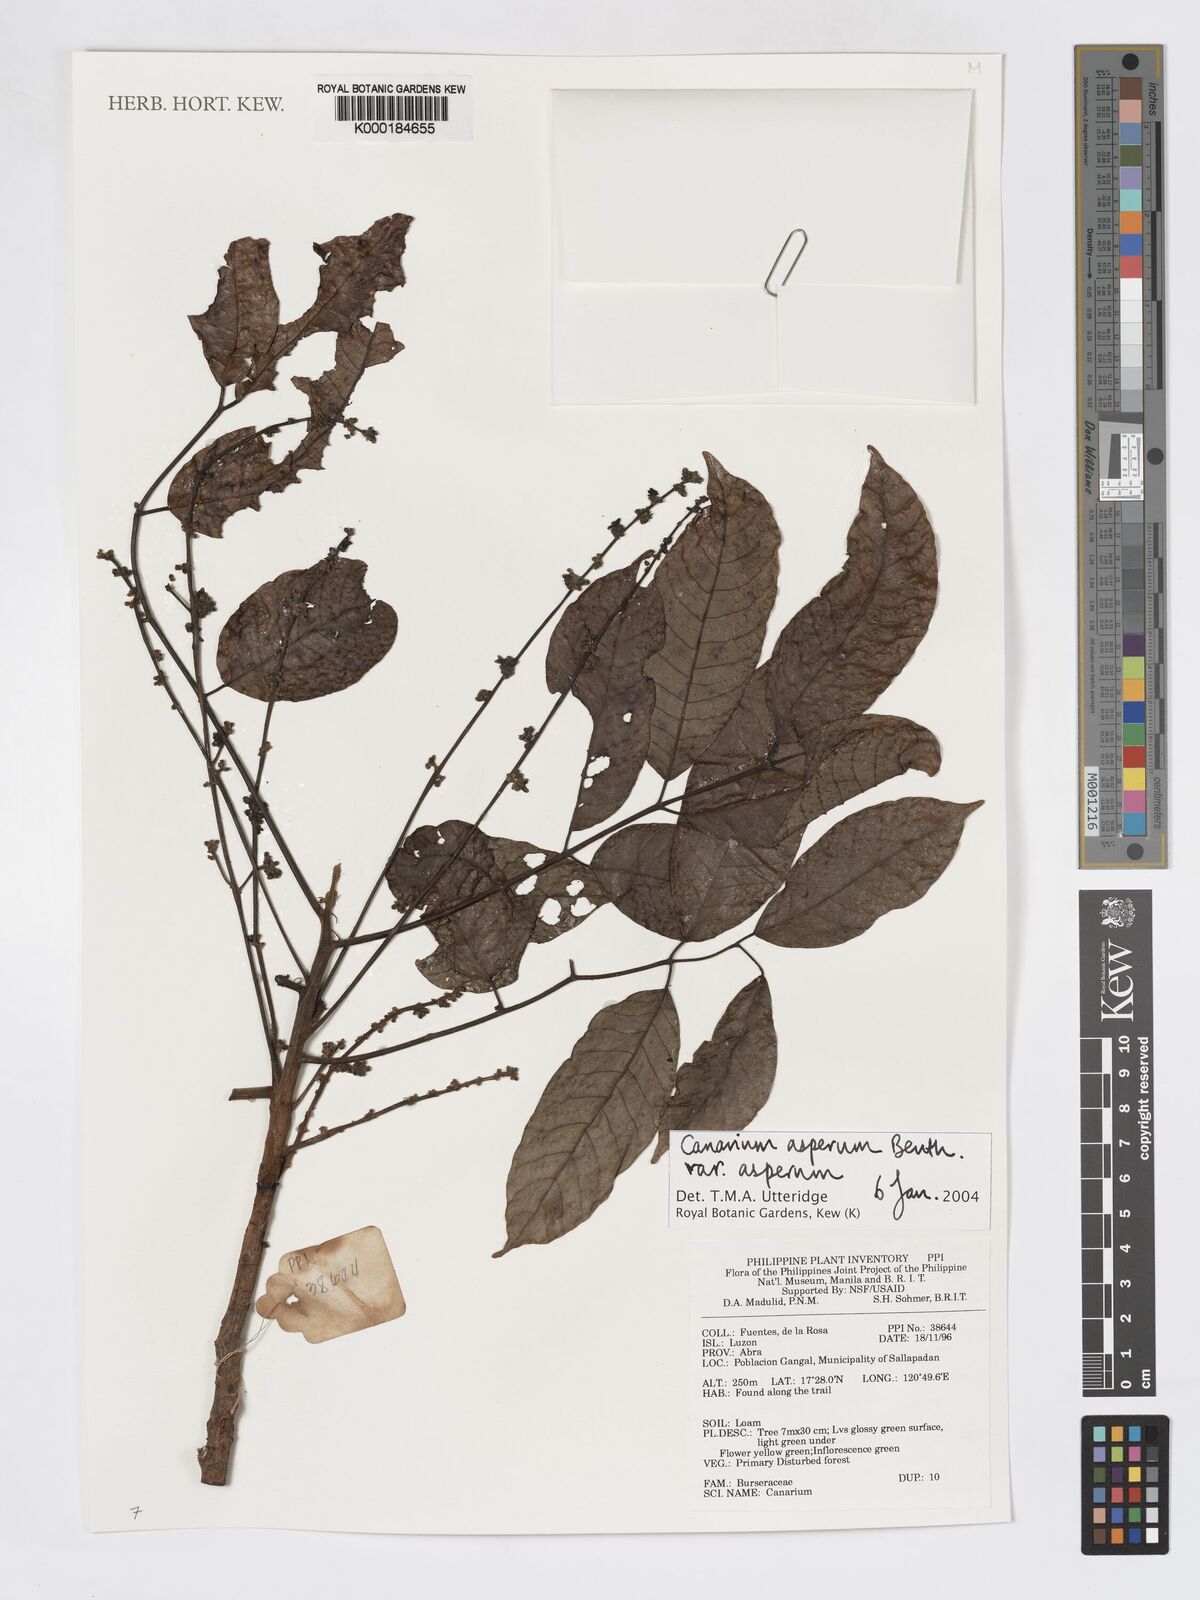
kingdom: Plantae
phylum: Tracheophyta
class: Magnoliopsida
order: Sapindales
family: Burseraceae
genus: Canarium
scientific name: Canarium asperum
